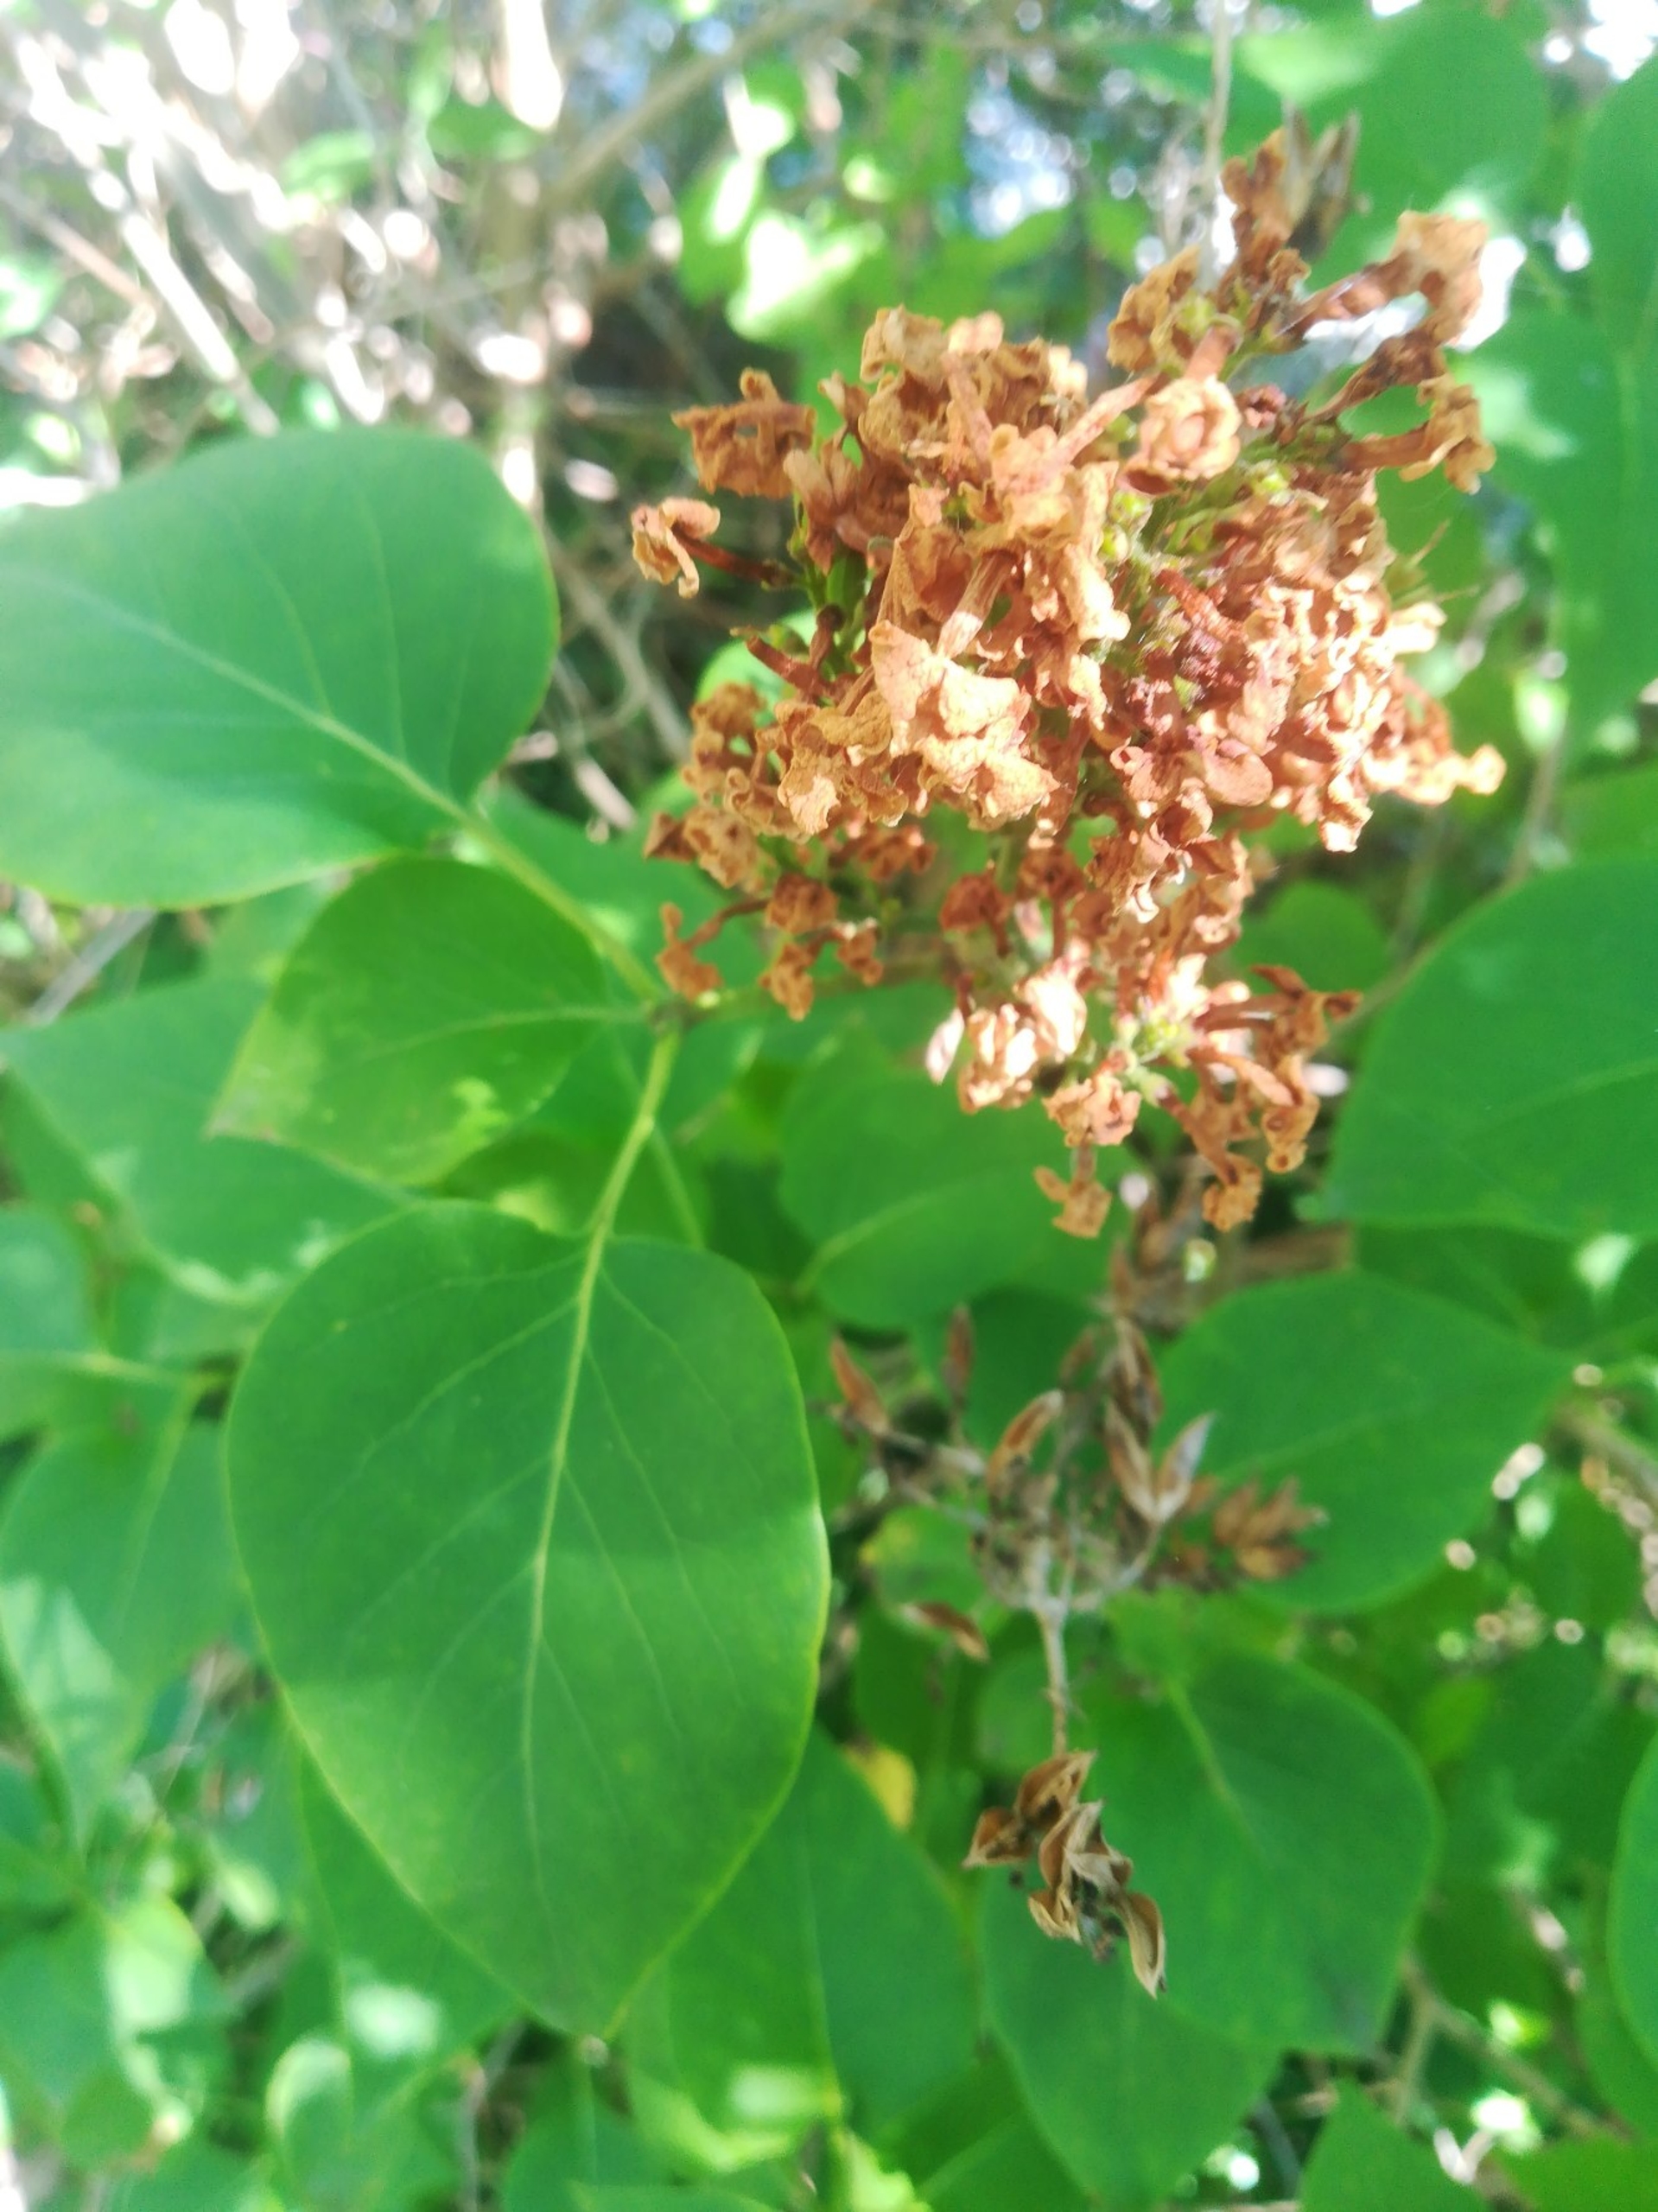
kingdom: Plantae
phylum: Tracheophyta
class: Magnoliopsida
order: Lamiales
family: Oleaceae
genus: Syringa
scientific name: Syringa vulgaris
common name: Syren
